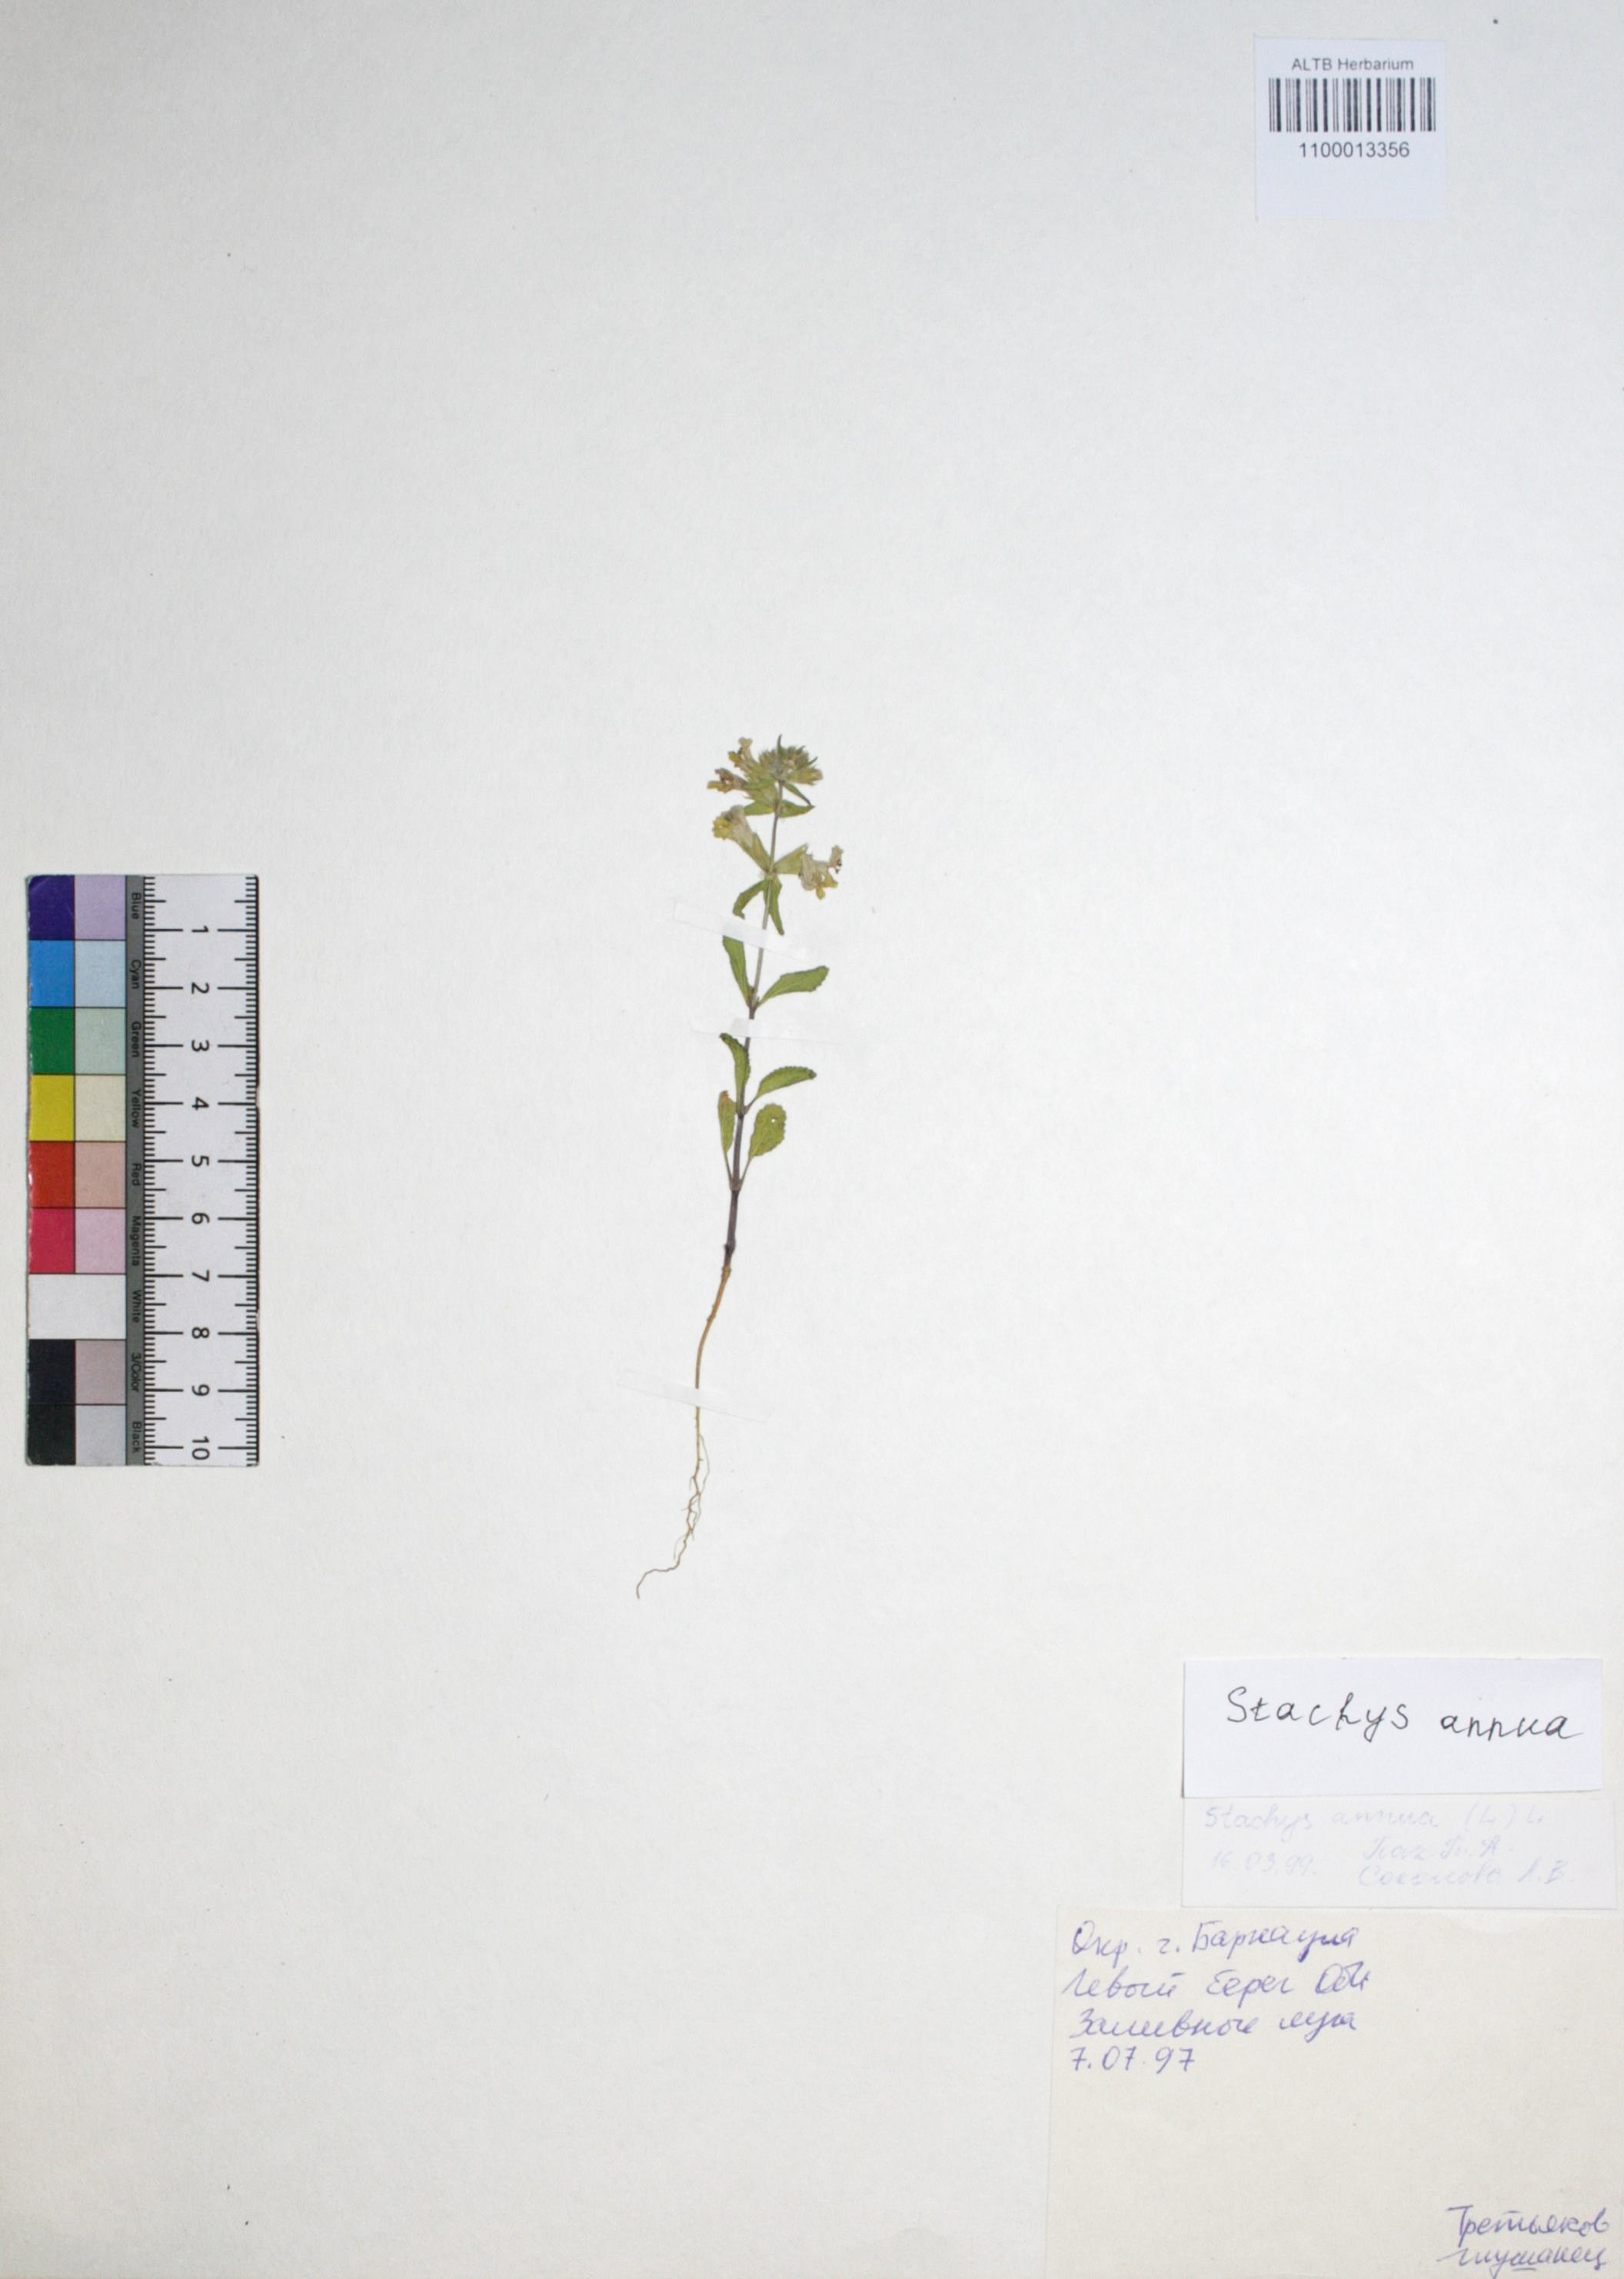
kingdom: Plantae
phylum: Tracheophyta
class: Magnoliopsida
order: Lamiales
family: Lamiaceae
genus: Stachys
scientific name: Stachys annua
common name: Annual yellow-woundwort
